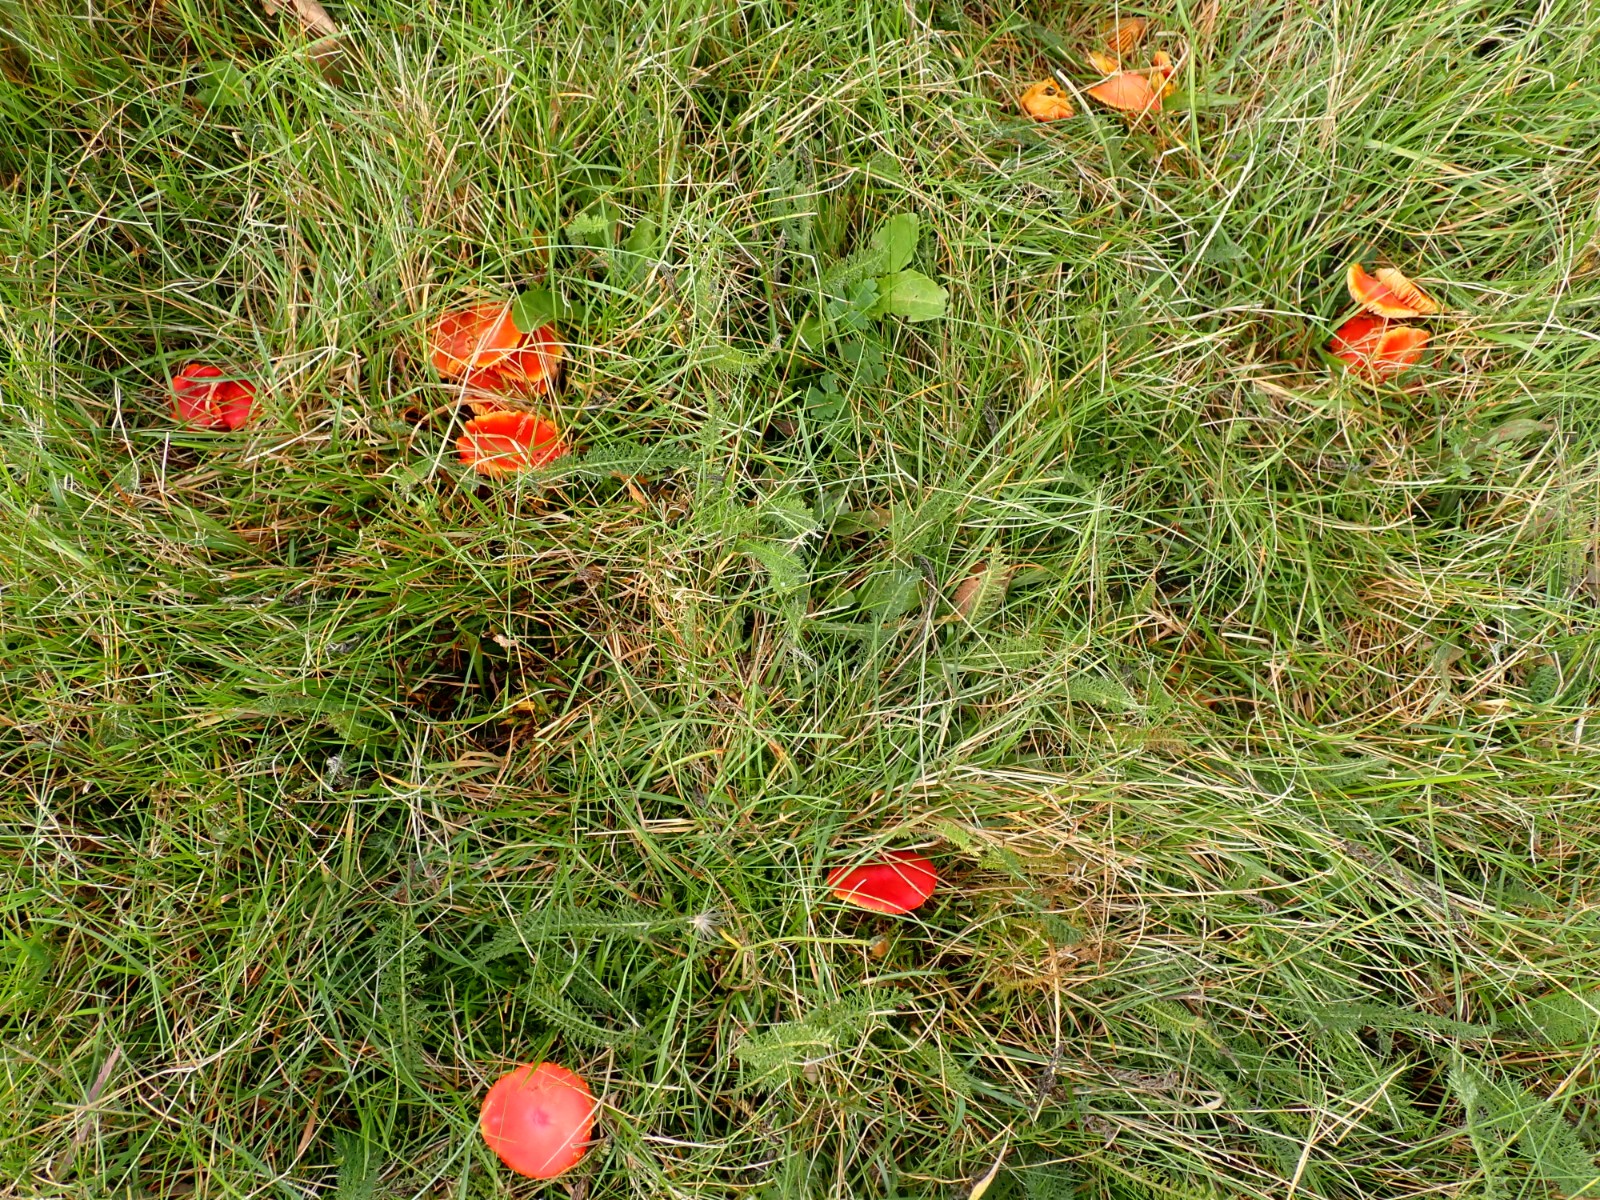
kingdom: Fungi
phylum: Basidiomycota
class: Agaricomycetes
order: Agaricales
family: Hygrophoraceae
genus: Hygrocybe
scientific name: Hygrocybe coccinea
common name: cinnober-vokshat
